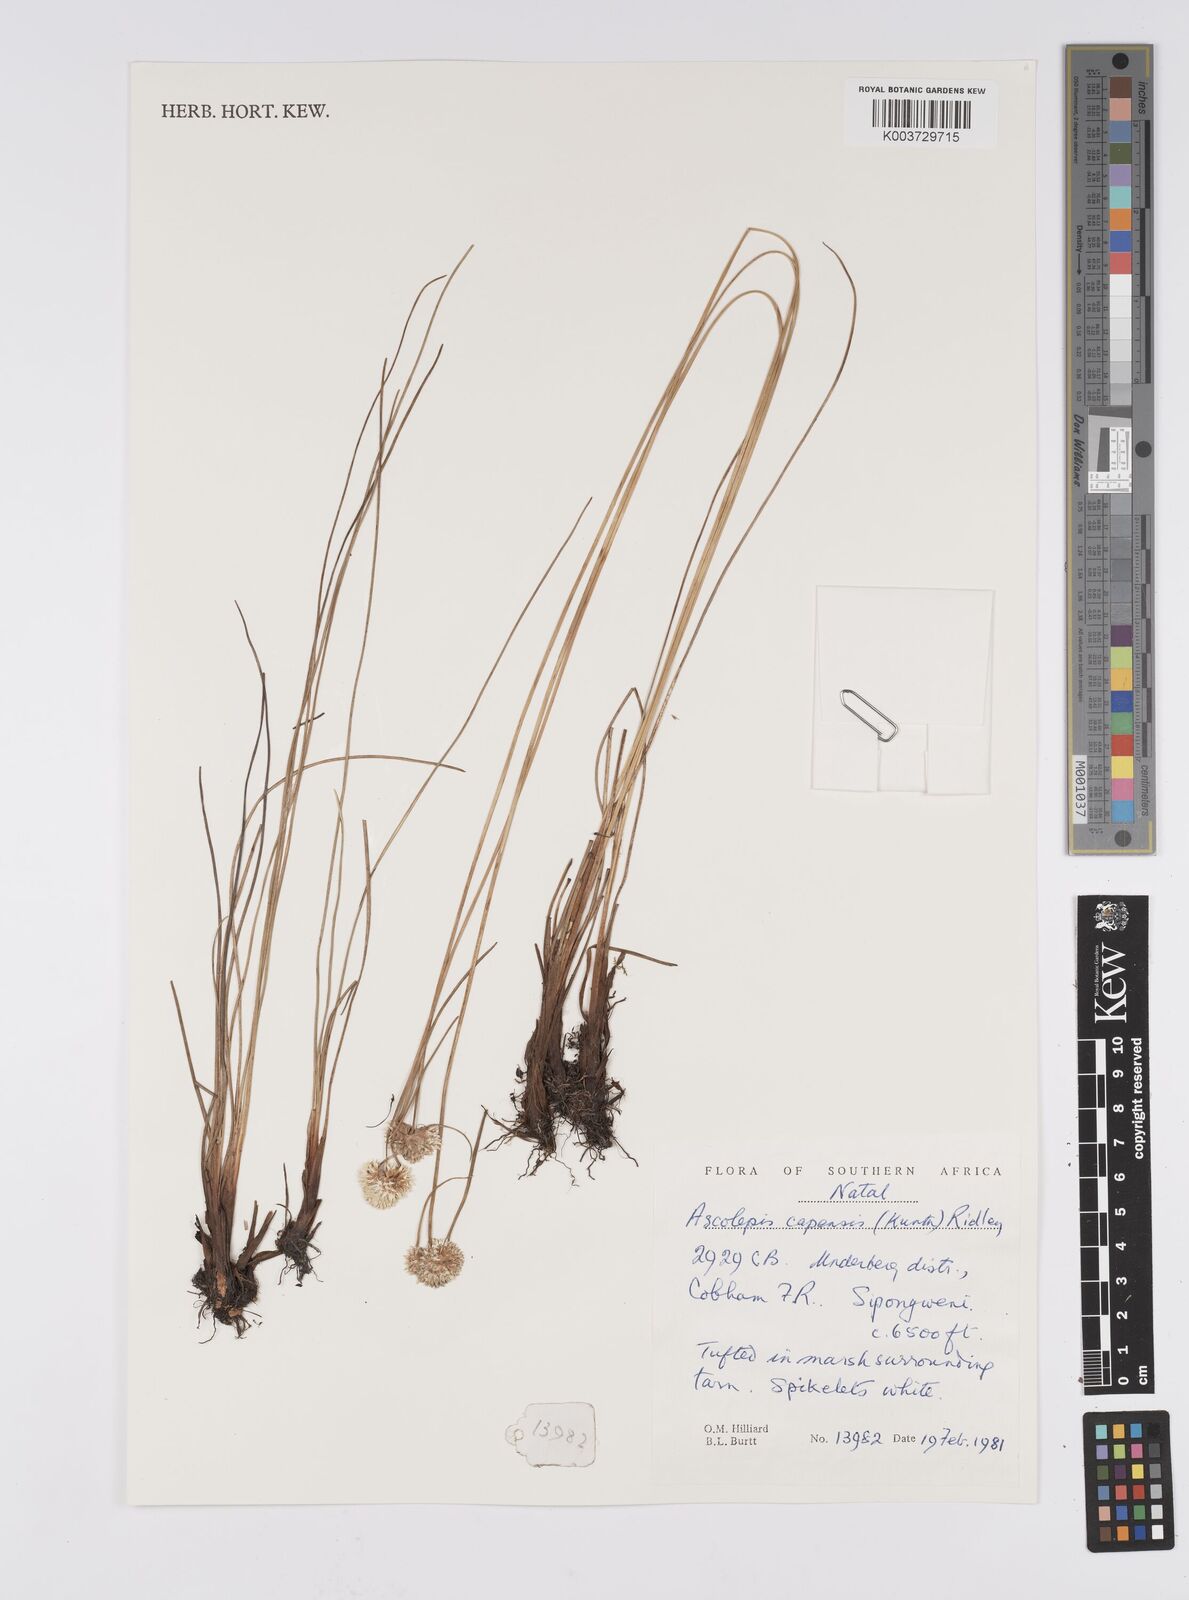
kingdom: Plantae
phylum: Tracheophyta
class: Liliopsida
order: Poales
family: Cyperaceae
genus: Cyperus
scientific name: Cyperus capensis
